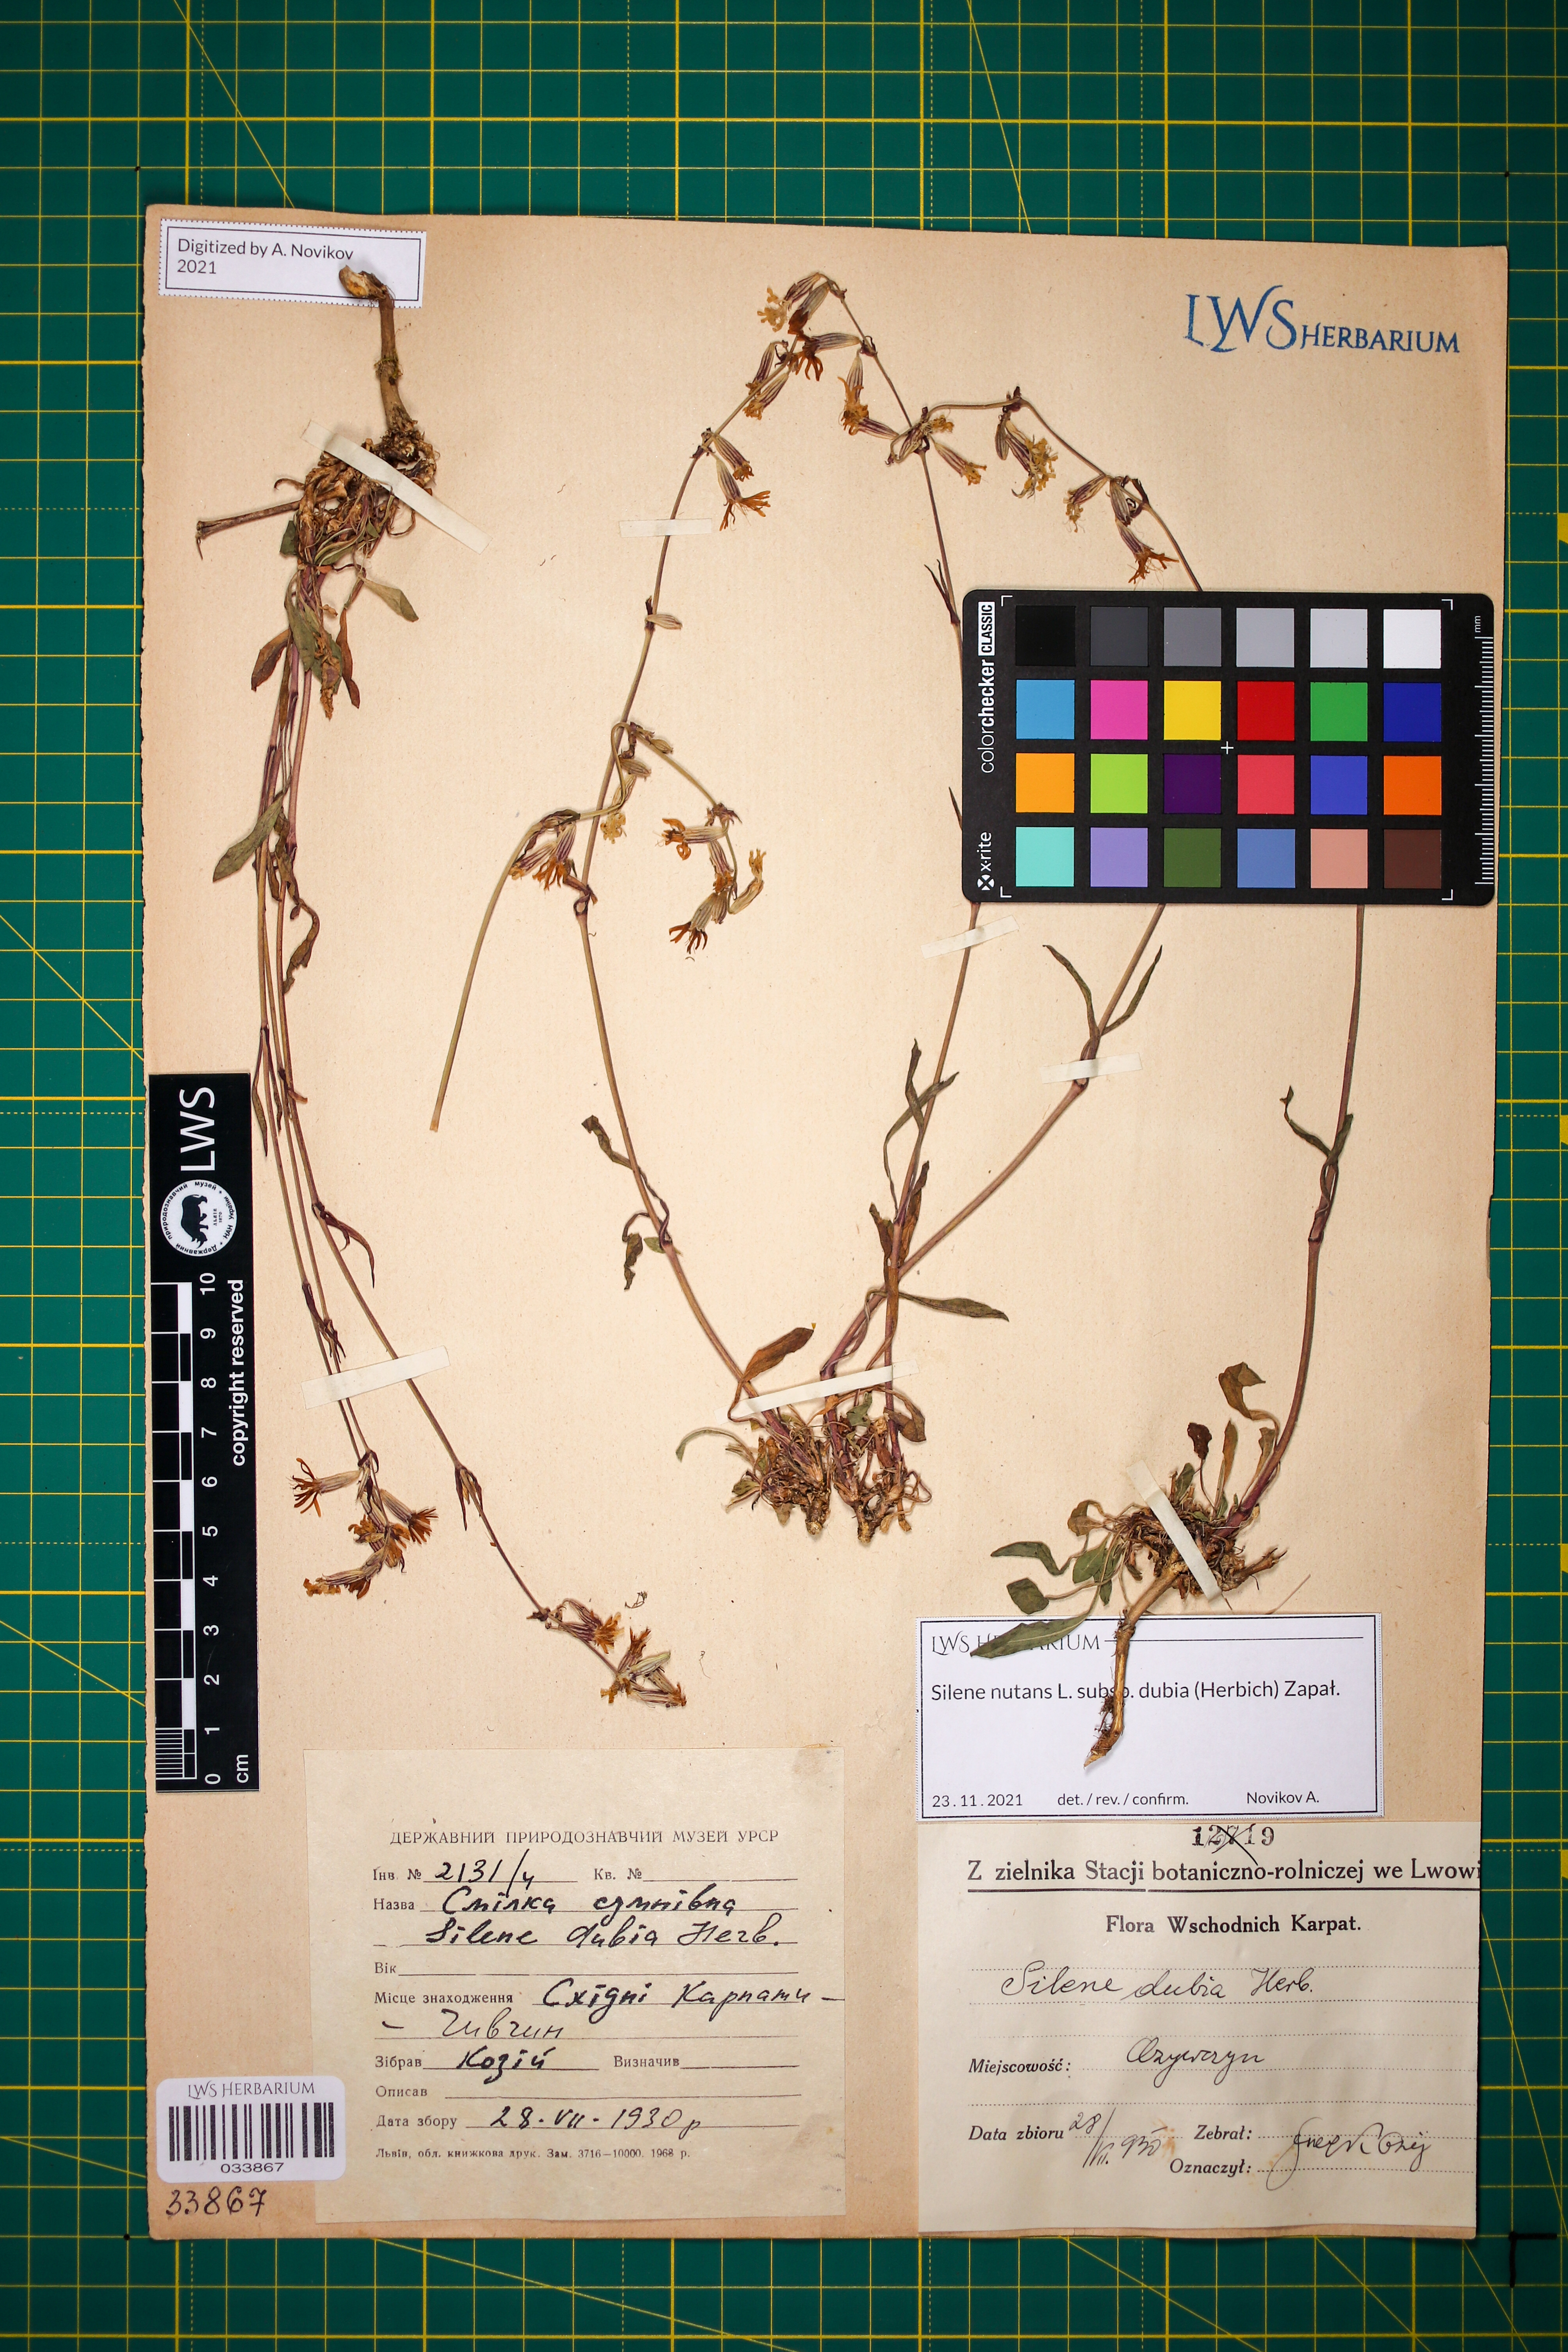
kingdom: Plantae
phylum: Tracheophyta
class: Magnoliopsida
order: Caryophyllales
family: Caryophyllaceae
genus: Silene
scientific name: Silene nutans
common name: Nottingham catchfly
